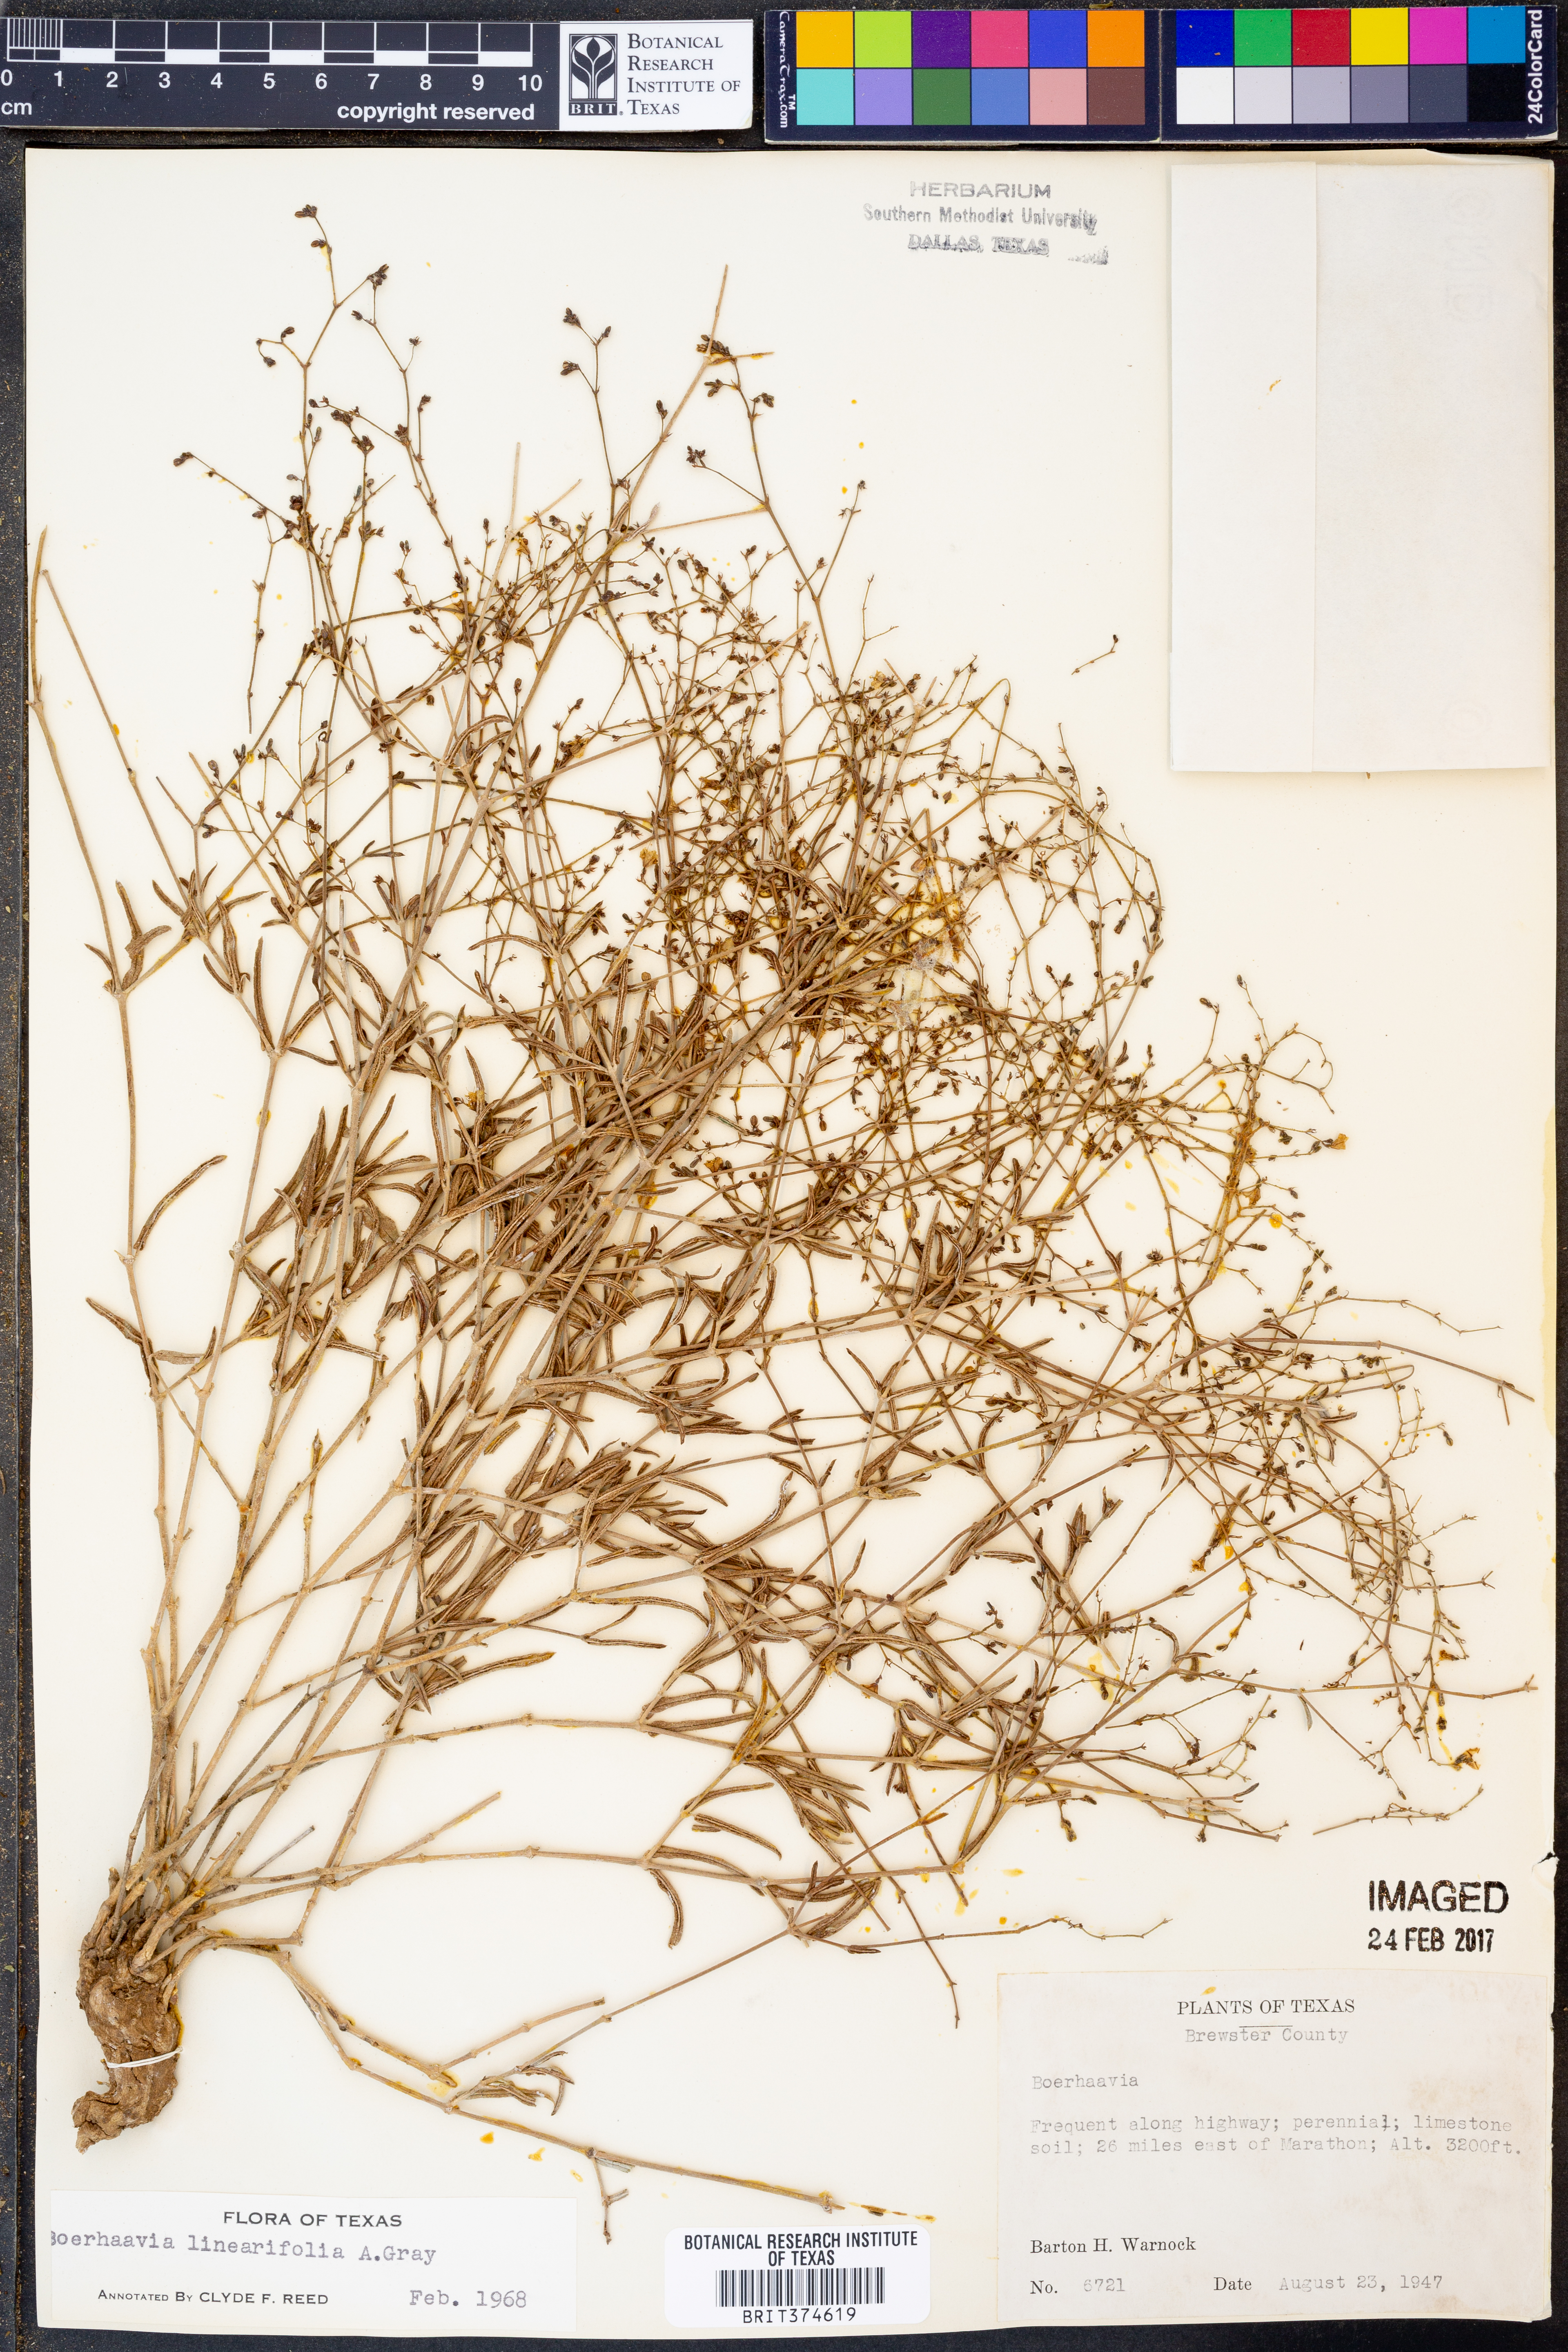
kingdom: Plantae
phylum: Tracheophyta
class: Magnoliopsida
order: Caryophyllales
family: Nyctaginaceae
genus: Boerhavia
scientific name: Boerhavia linearifolia
